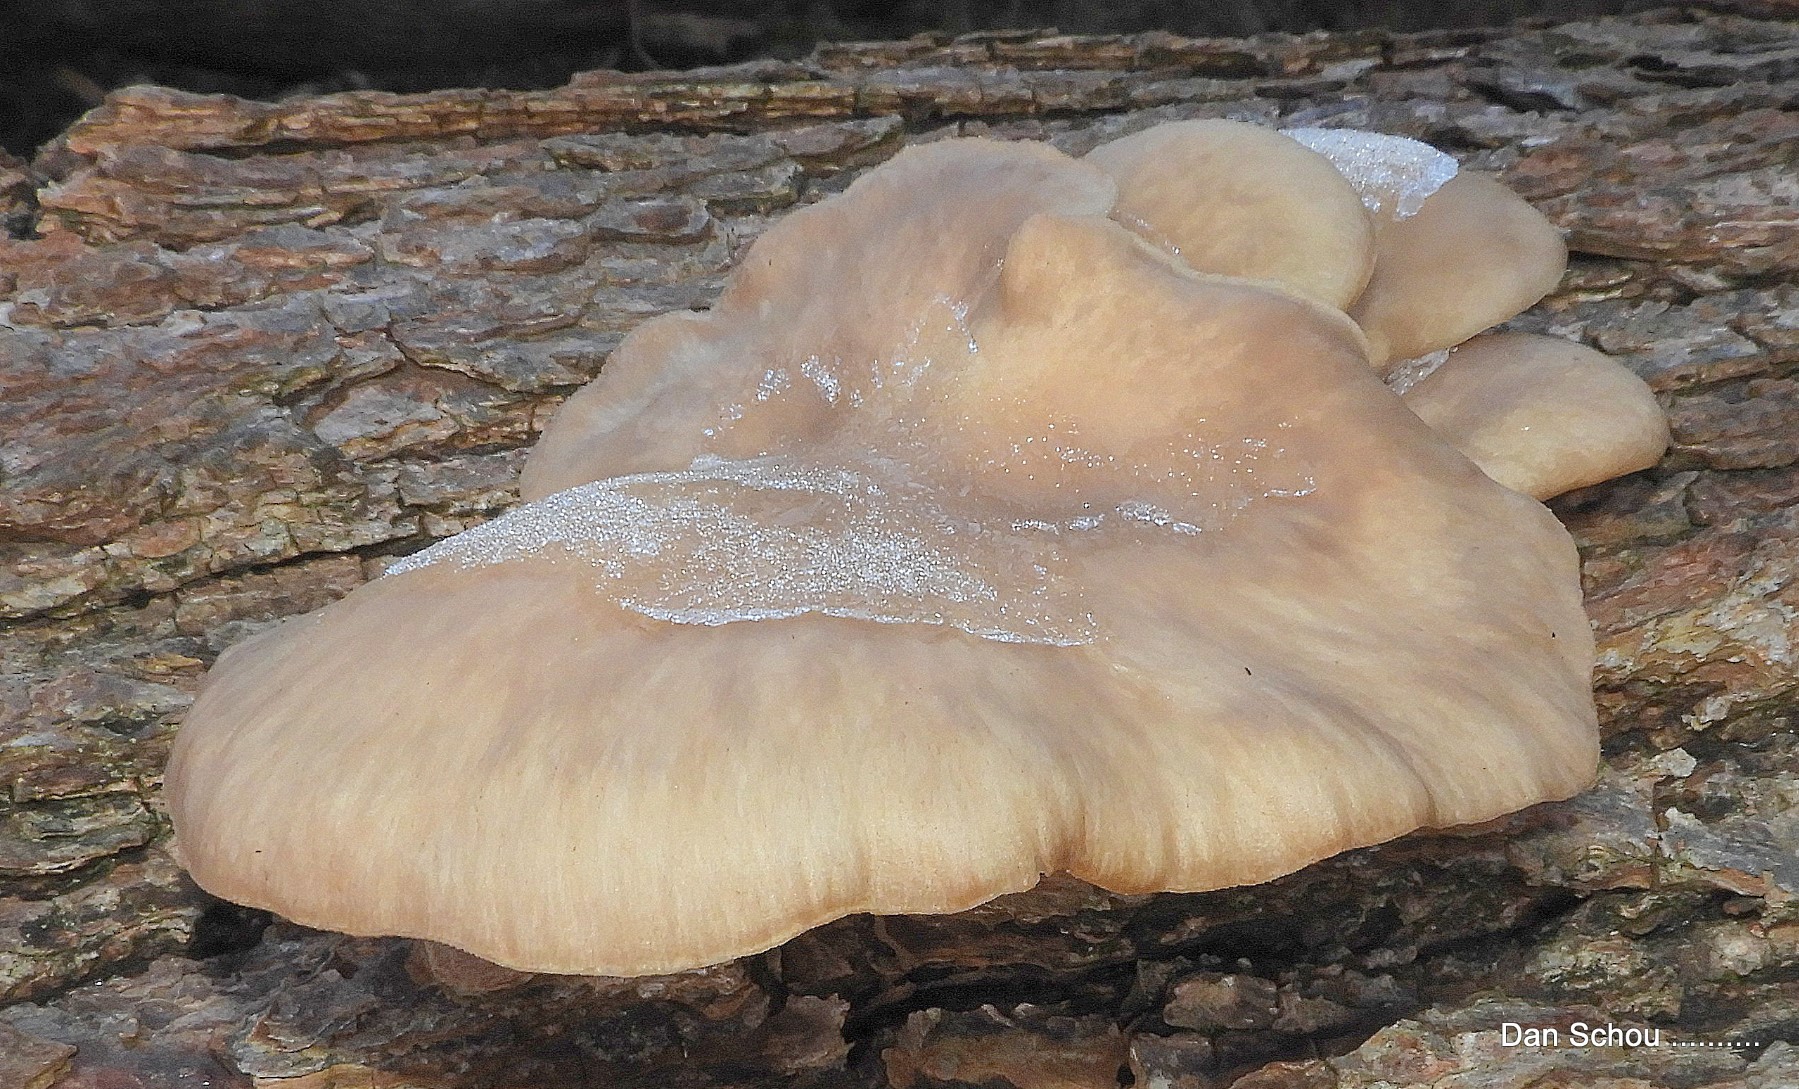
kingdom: Fungi
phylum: Basidiomycota
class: Agaricomycetes
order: Agaricales
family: Pleurotaceae
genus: Pleurotus
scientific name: Pleurotus ostreatus
